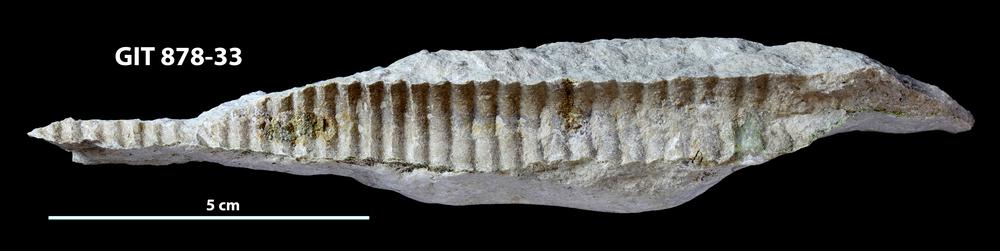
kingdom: Animalia
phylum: Mollusca
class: Cephalopoda
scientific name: Cephalopoda
